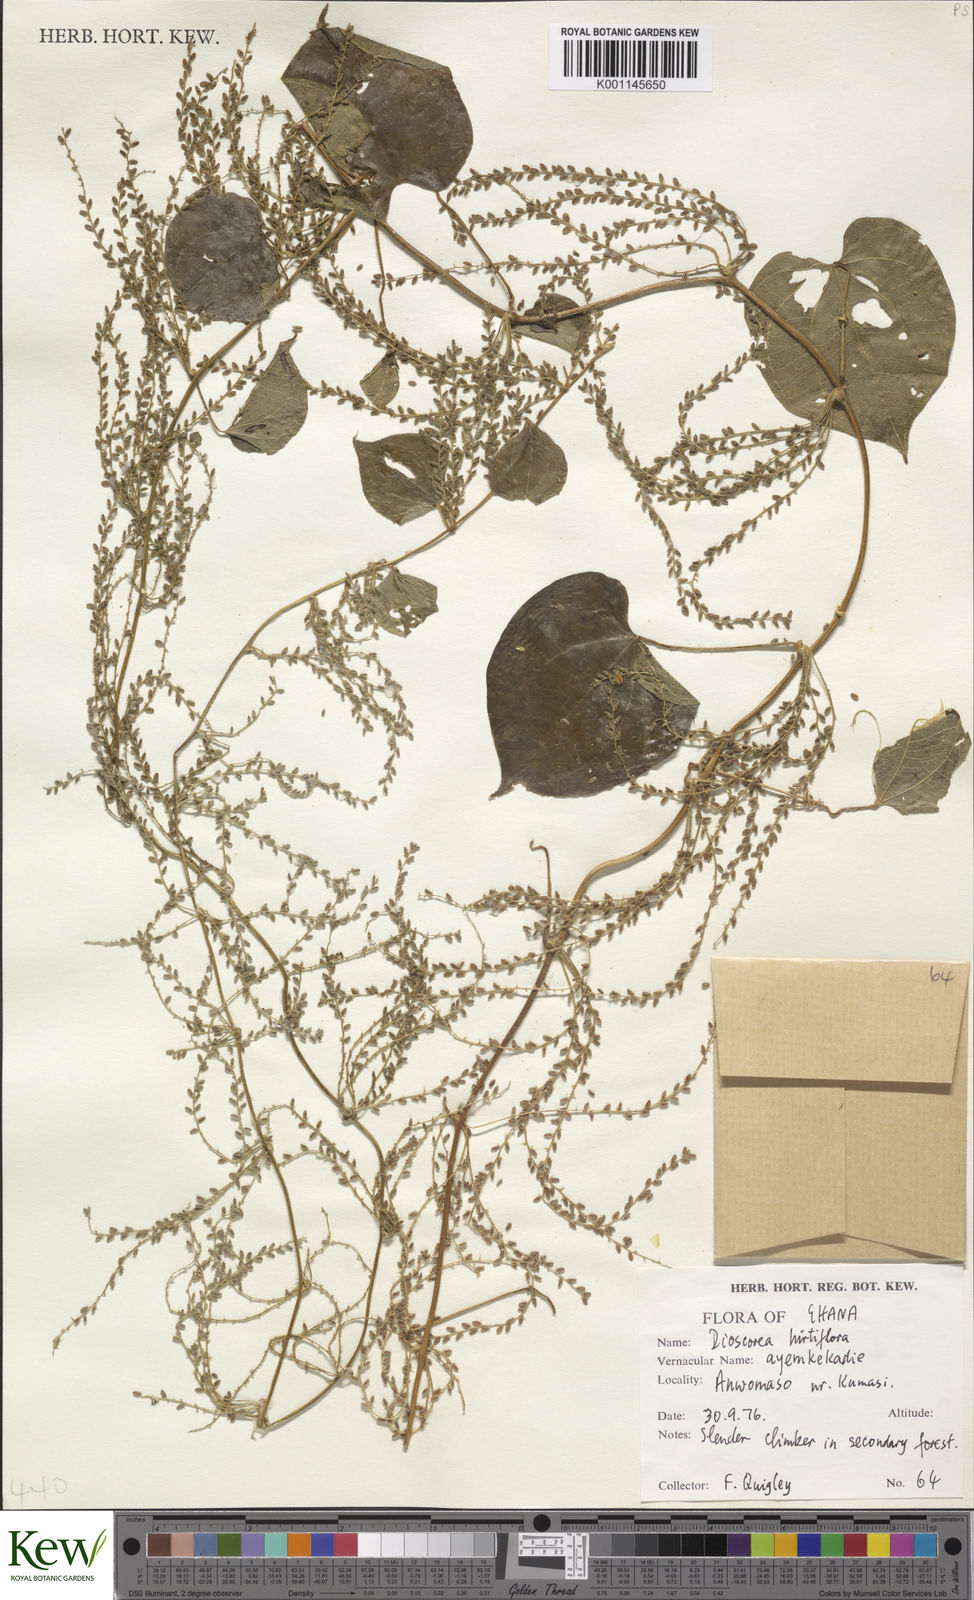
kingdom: Plantae
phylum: Tracheophyta
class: Liliopsida
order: Dioscoreales
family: Dioscoreaceae
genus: Dioscorea
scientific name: Dioscorea hirtiflora
